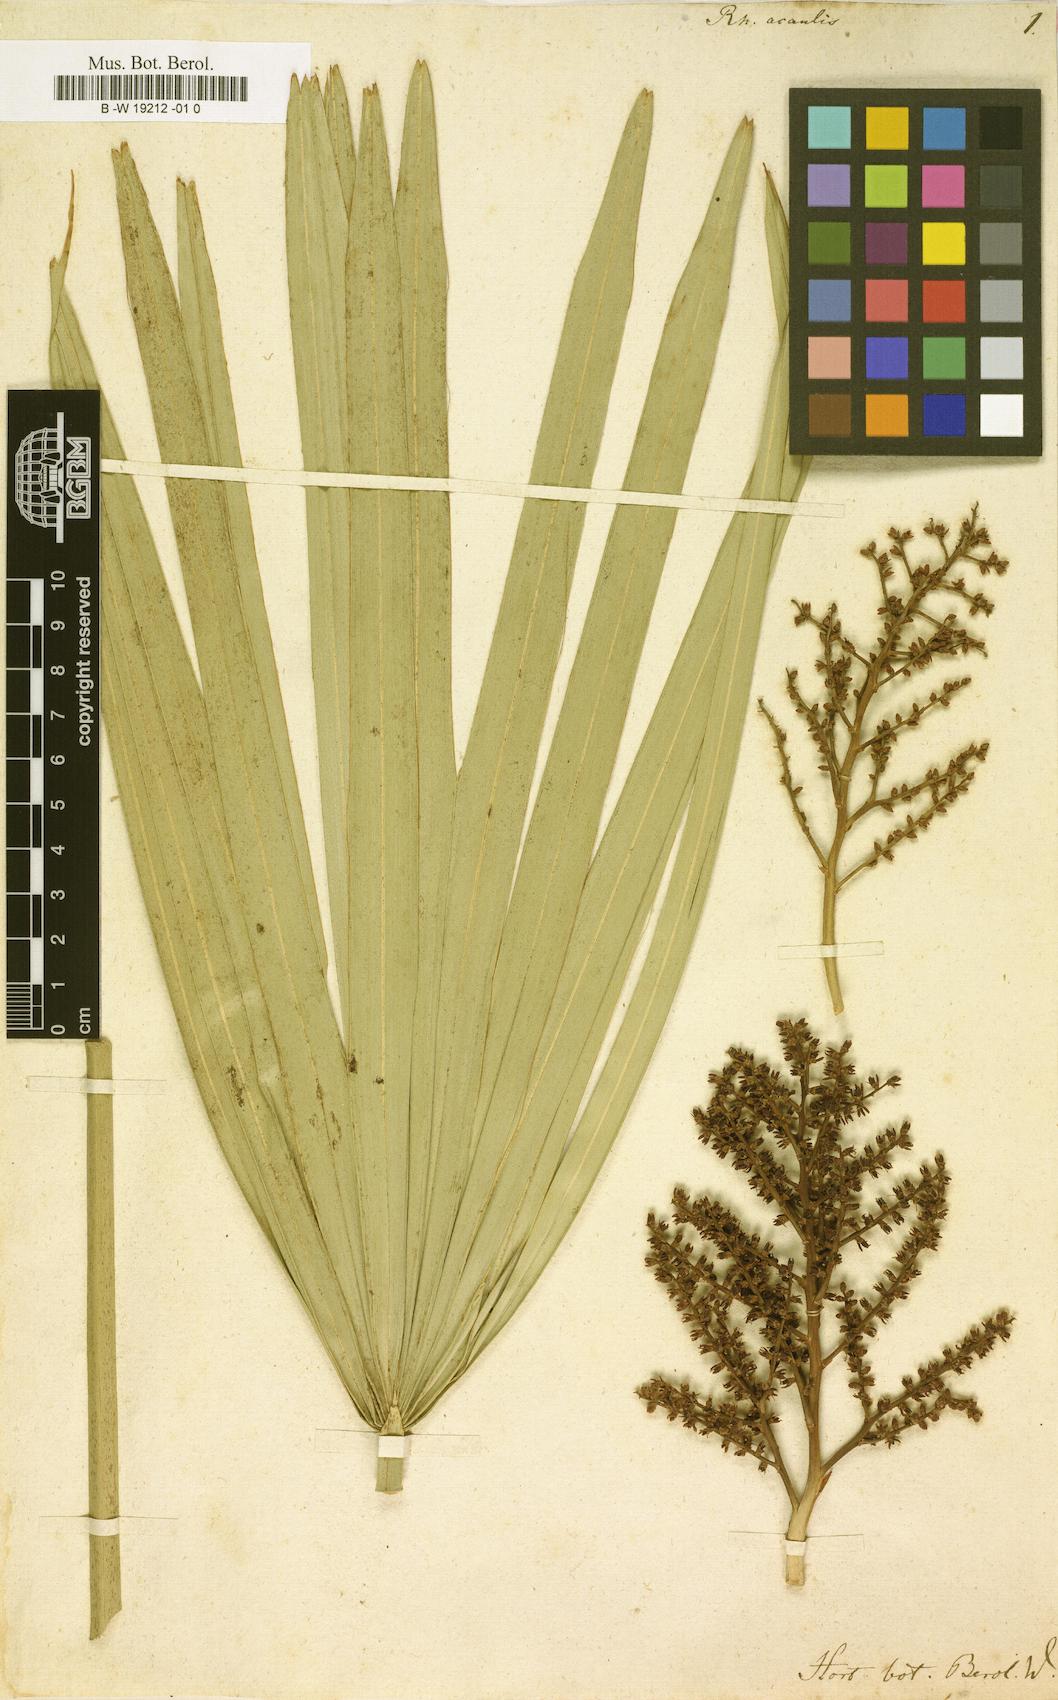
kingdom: Plantae
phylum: Tracheophyta
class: Liliopsida
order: Arecales
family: Arecaceae
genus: Sabal
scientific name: Sabal minor
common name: Dwarf palmetto
